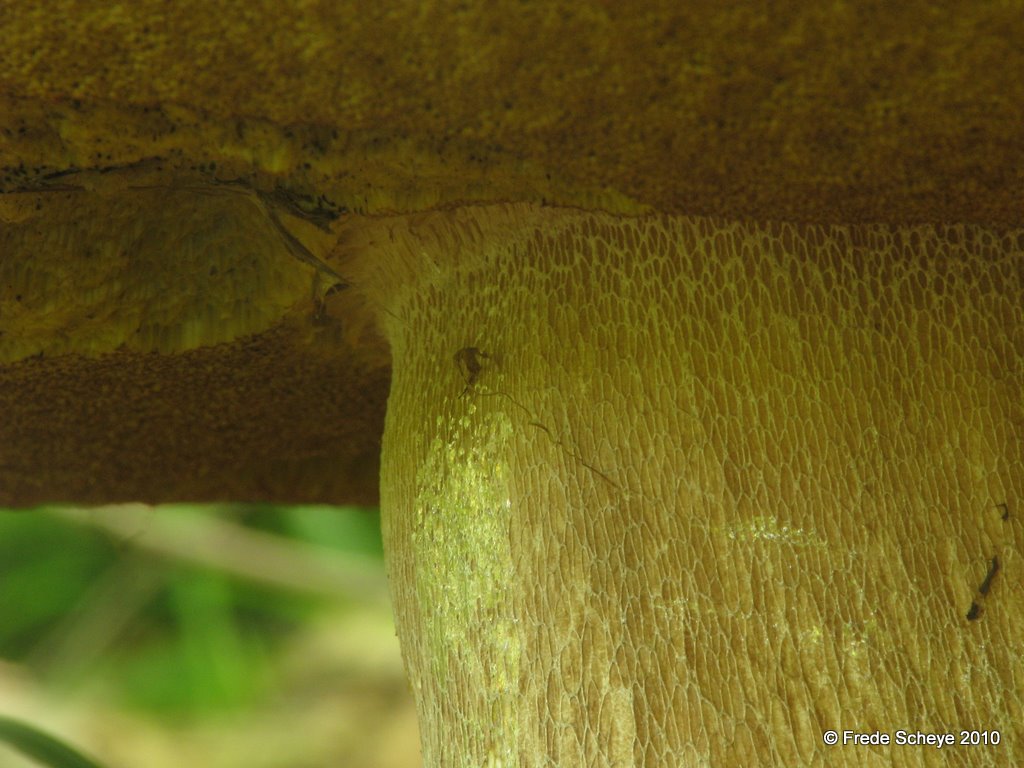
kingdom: Fungi
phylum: Basidiomycota
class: Agaricomycetes
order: Boletales
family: Boletaceae
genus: Boletus
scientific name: Boletus reticulatus
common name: sommer-rørhat
